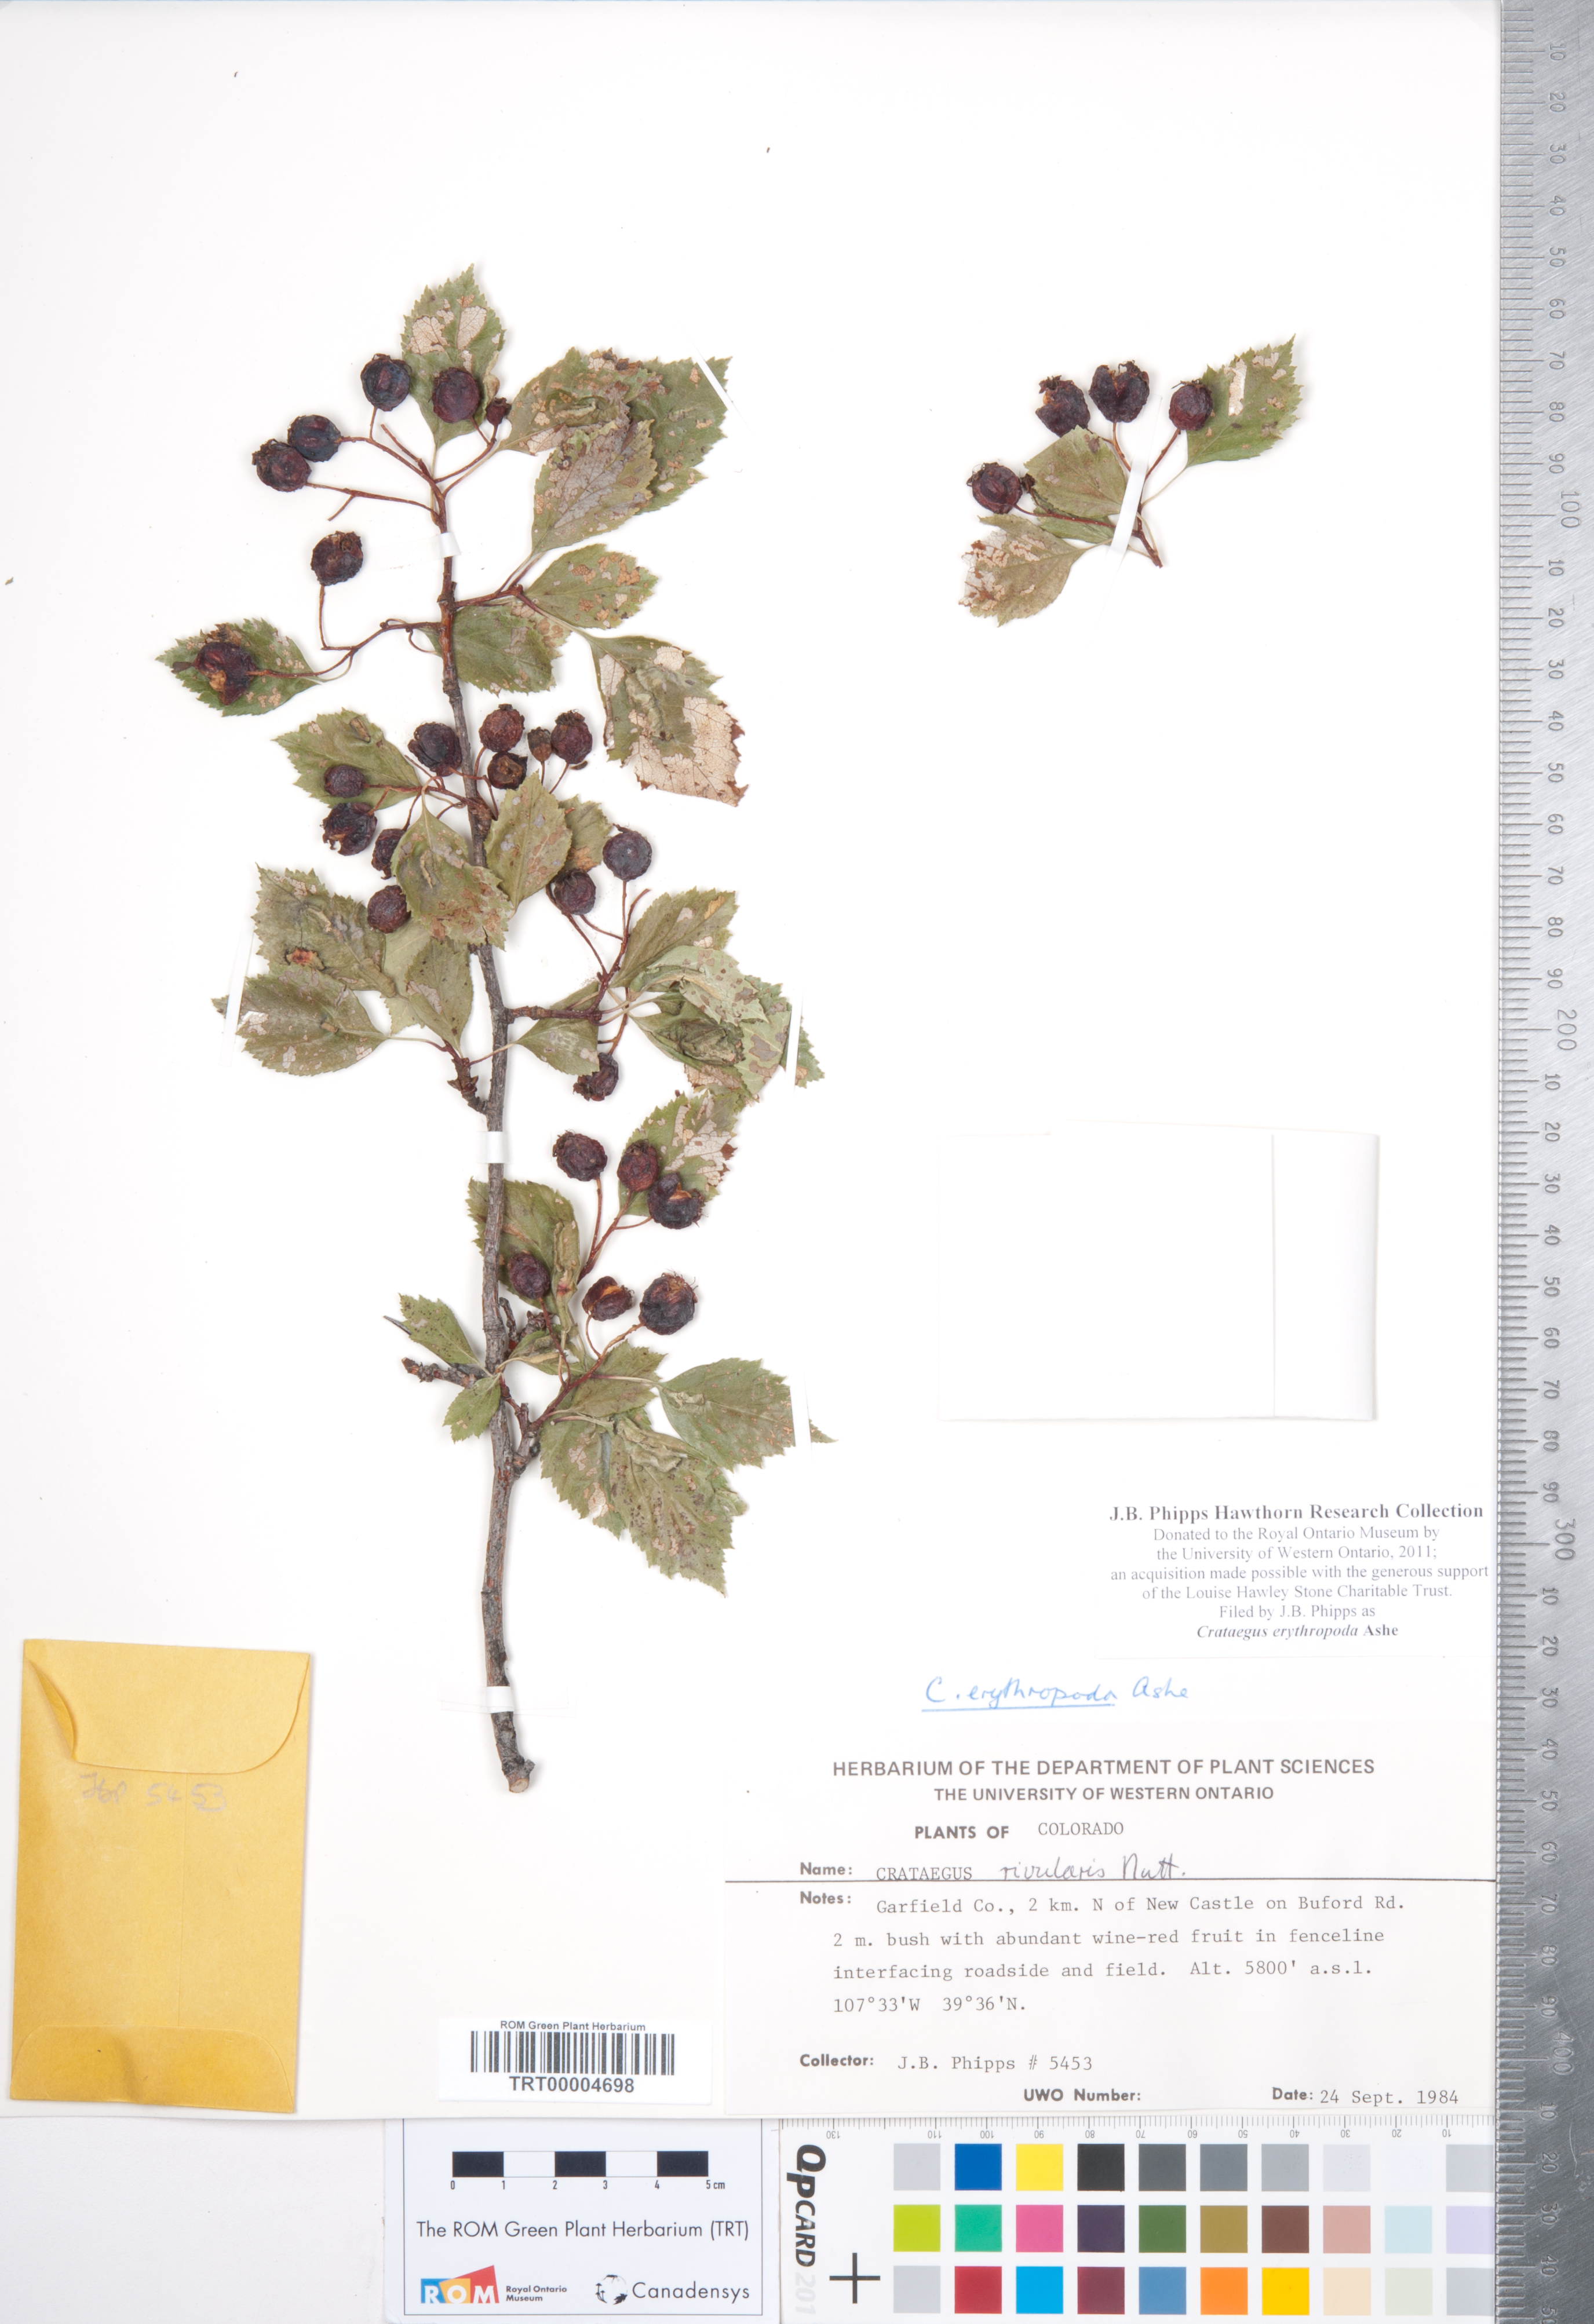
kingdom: Plantae
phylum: Tracheophyta
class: Magnoliopsida
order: Rosales
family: Rosaceae
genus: Crataegus
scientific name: Crataegus erythropoda
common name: Cerro hawthorn
